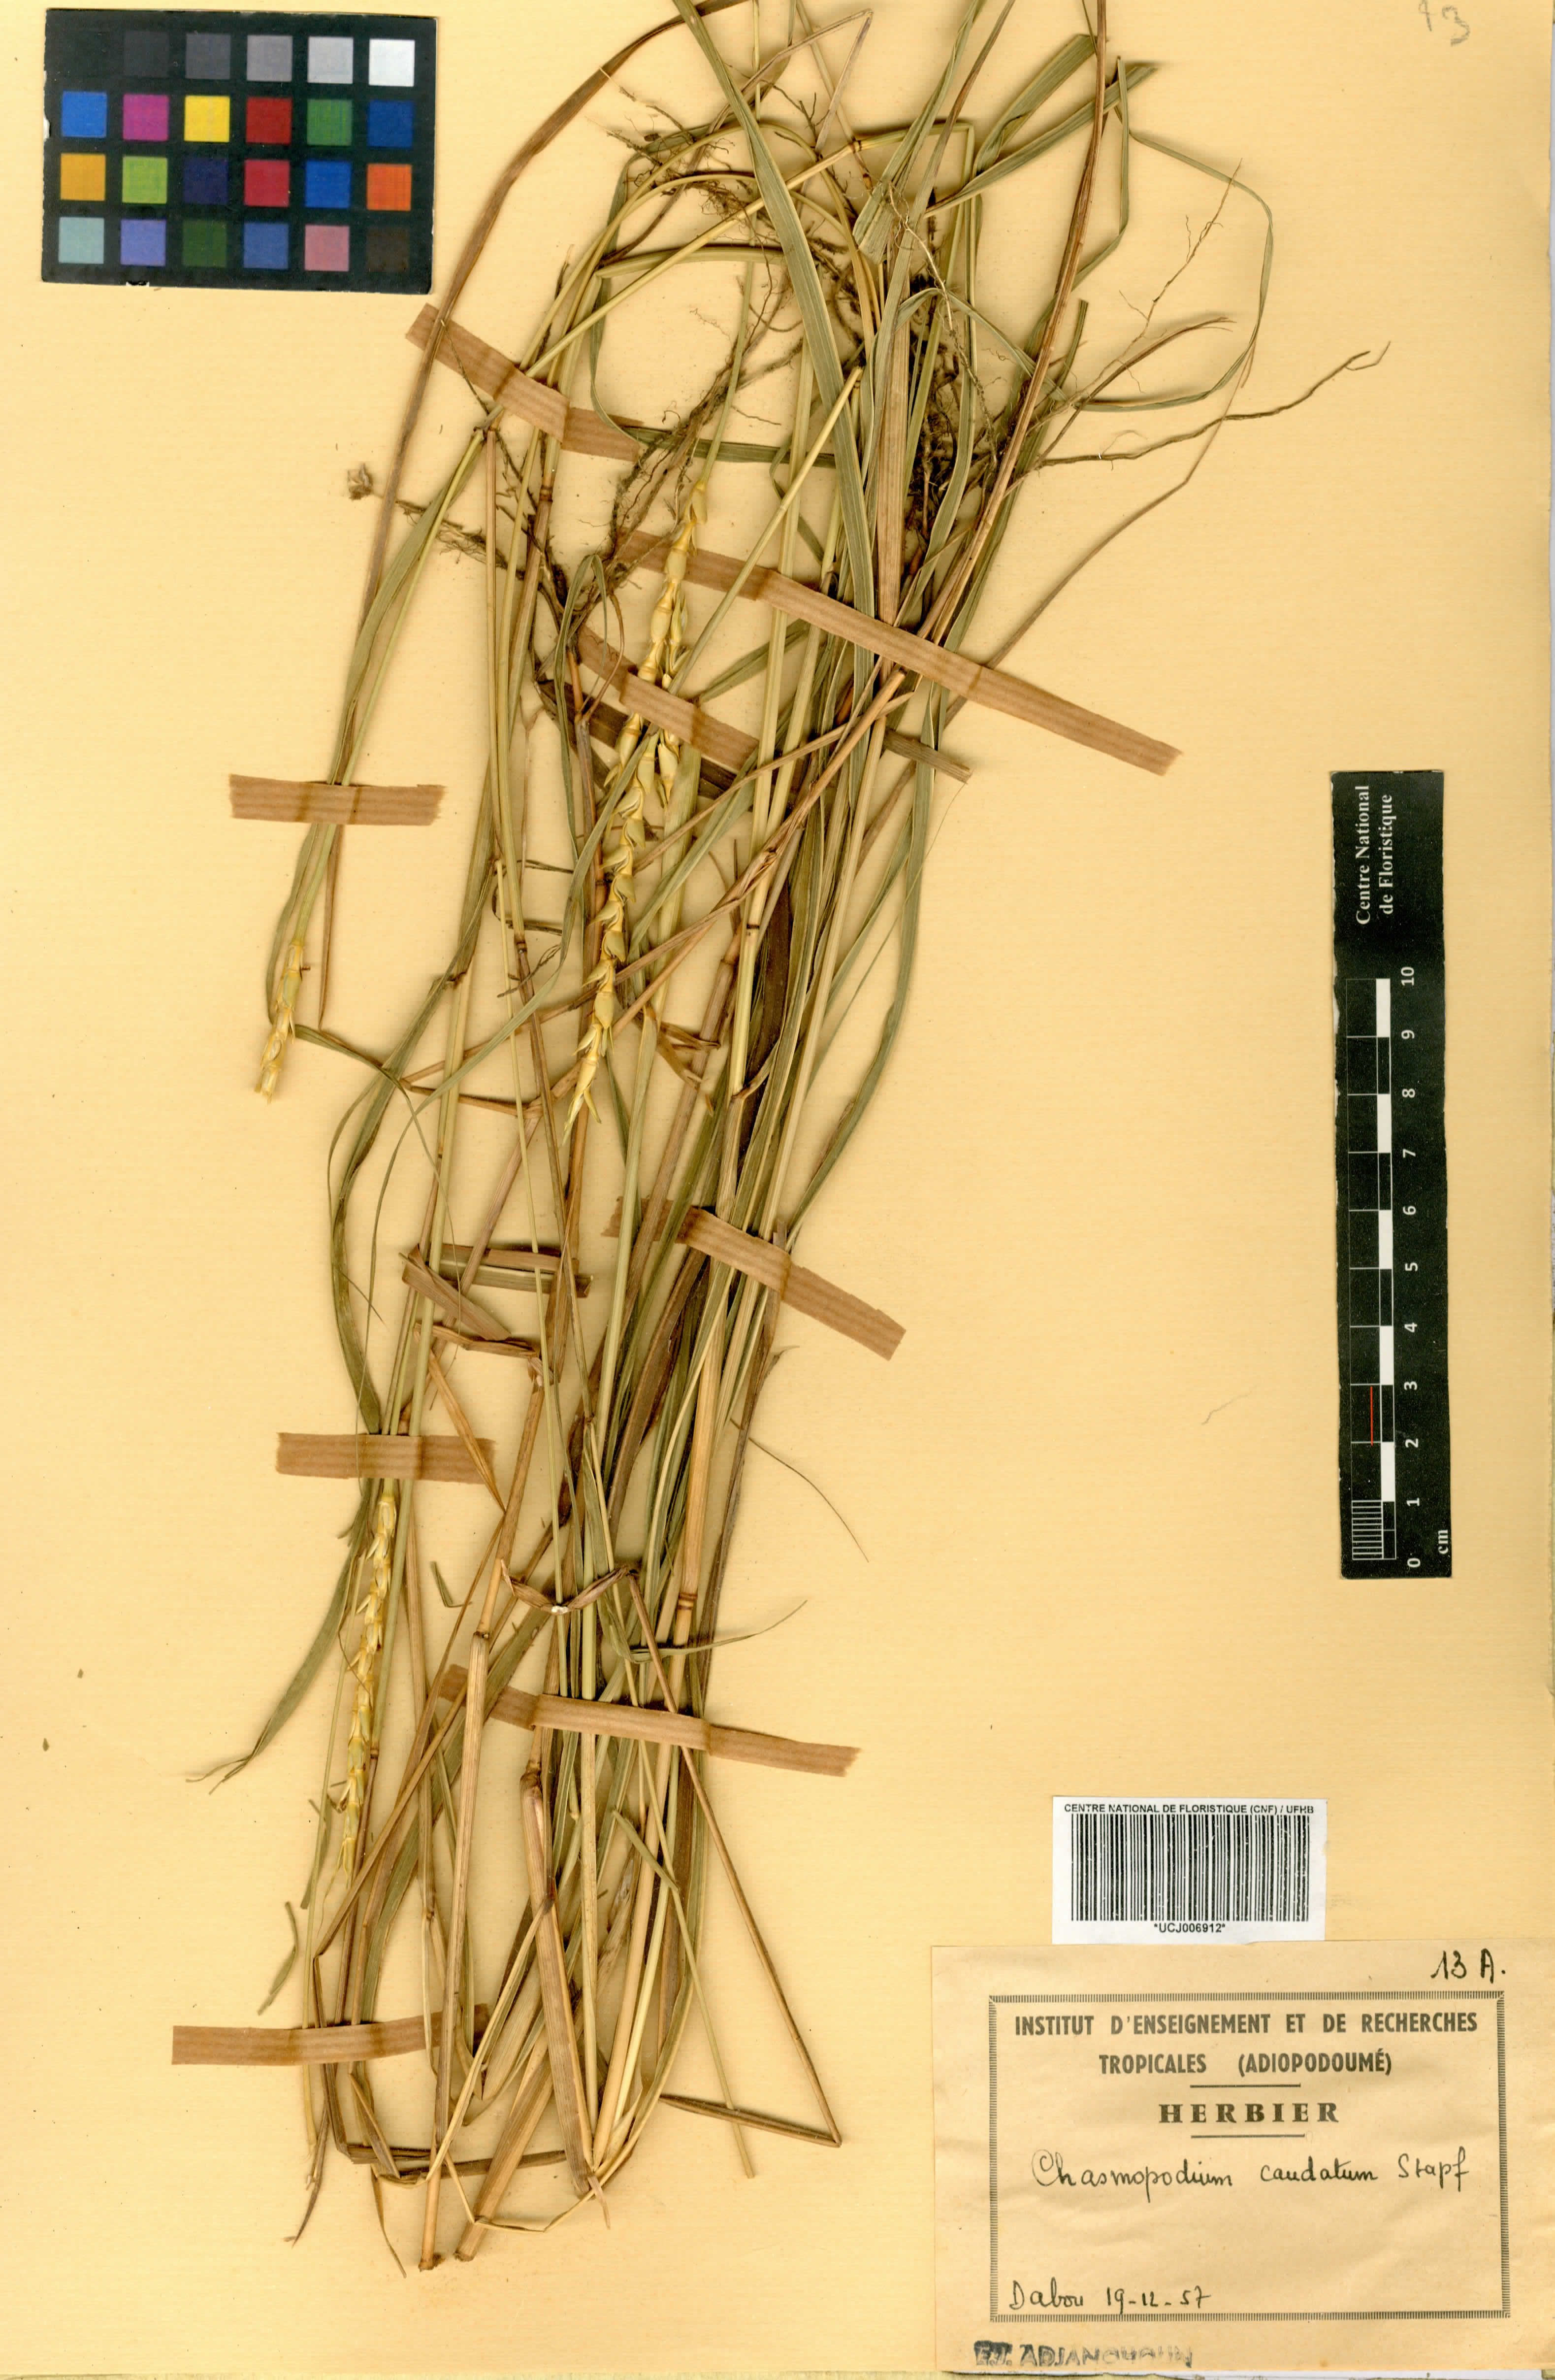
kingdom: Plantae
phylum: Tracheophyta
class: Liliopsida
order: Poales
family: Poaceae
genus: Chasmopodium
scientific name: Chasmopodium caudatum
